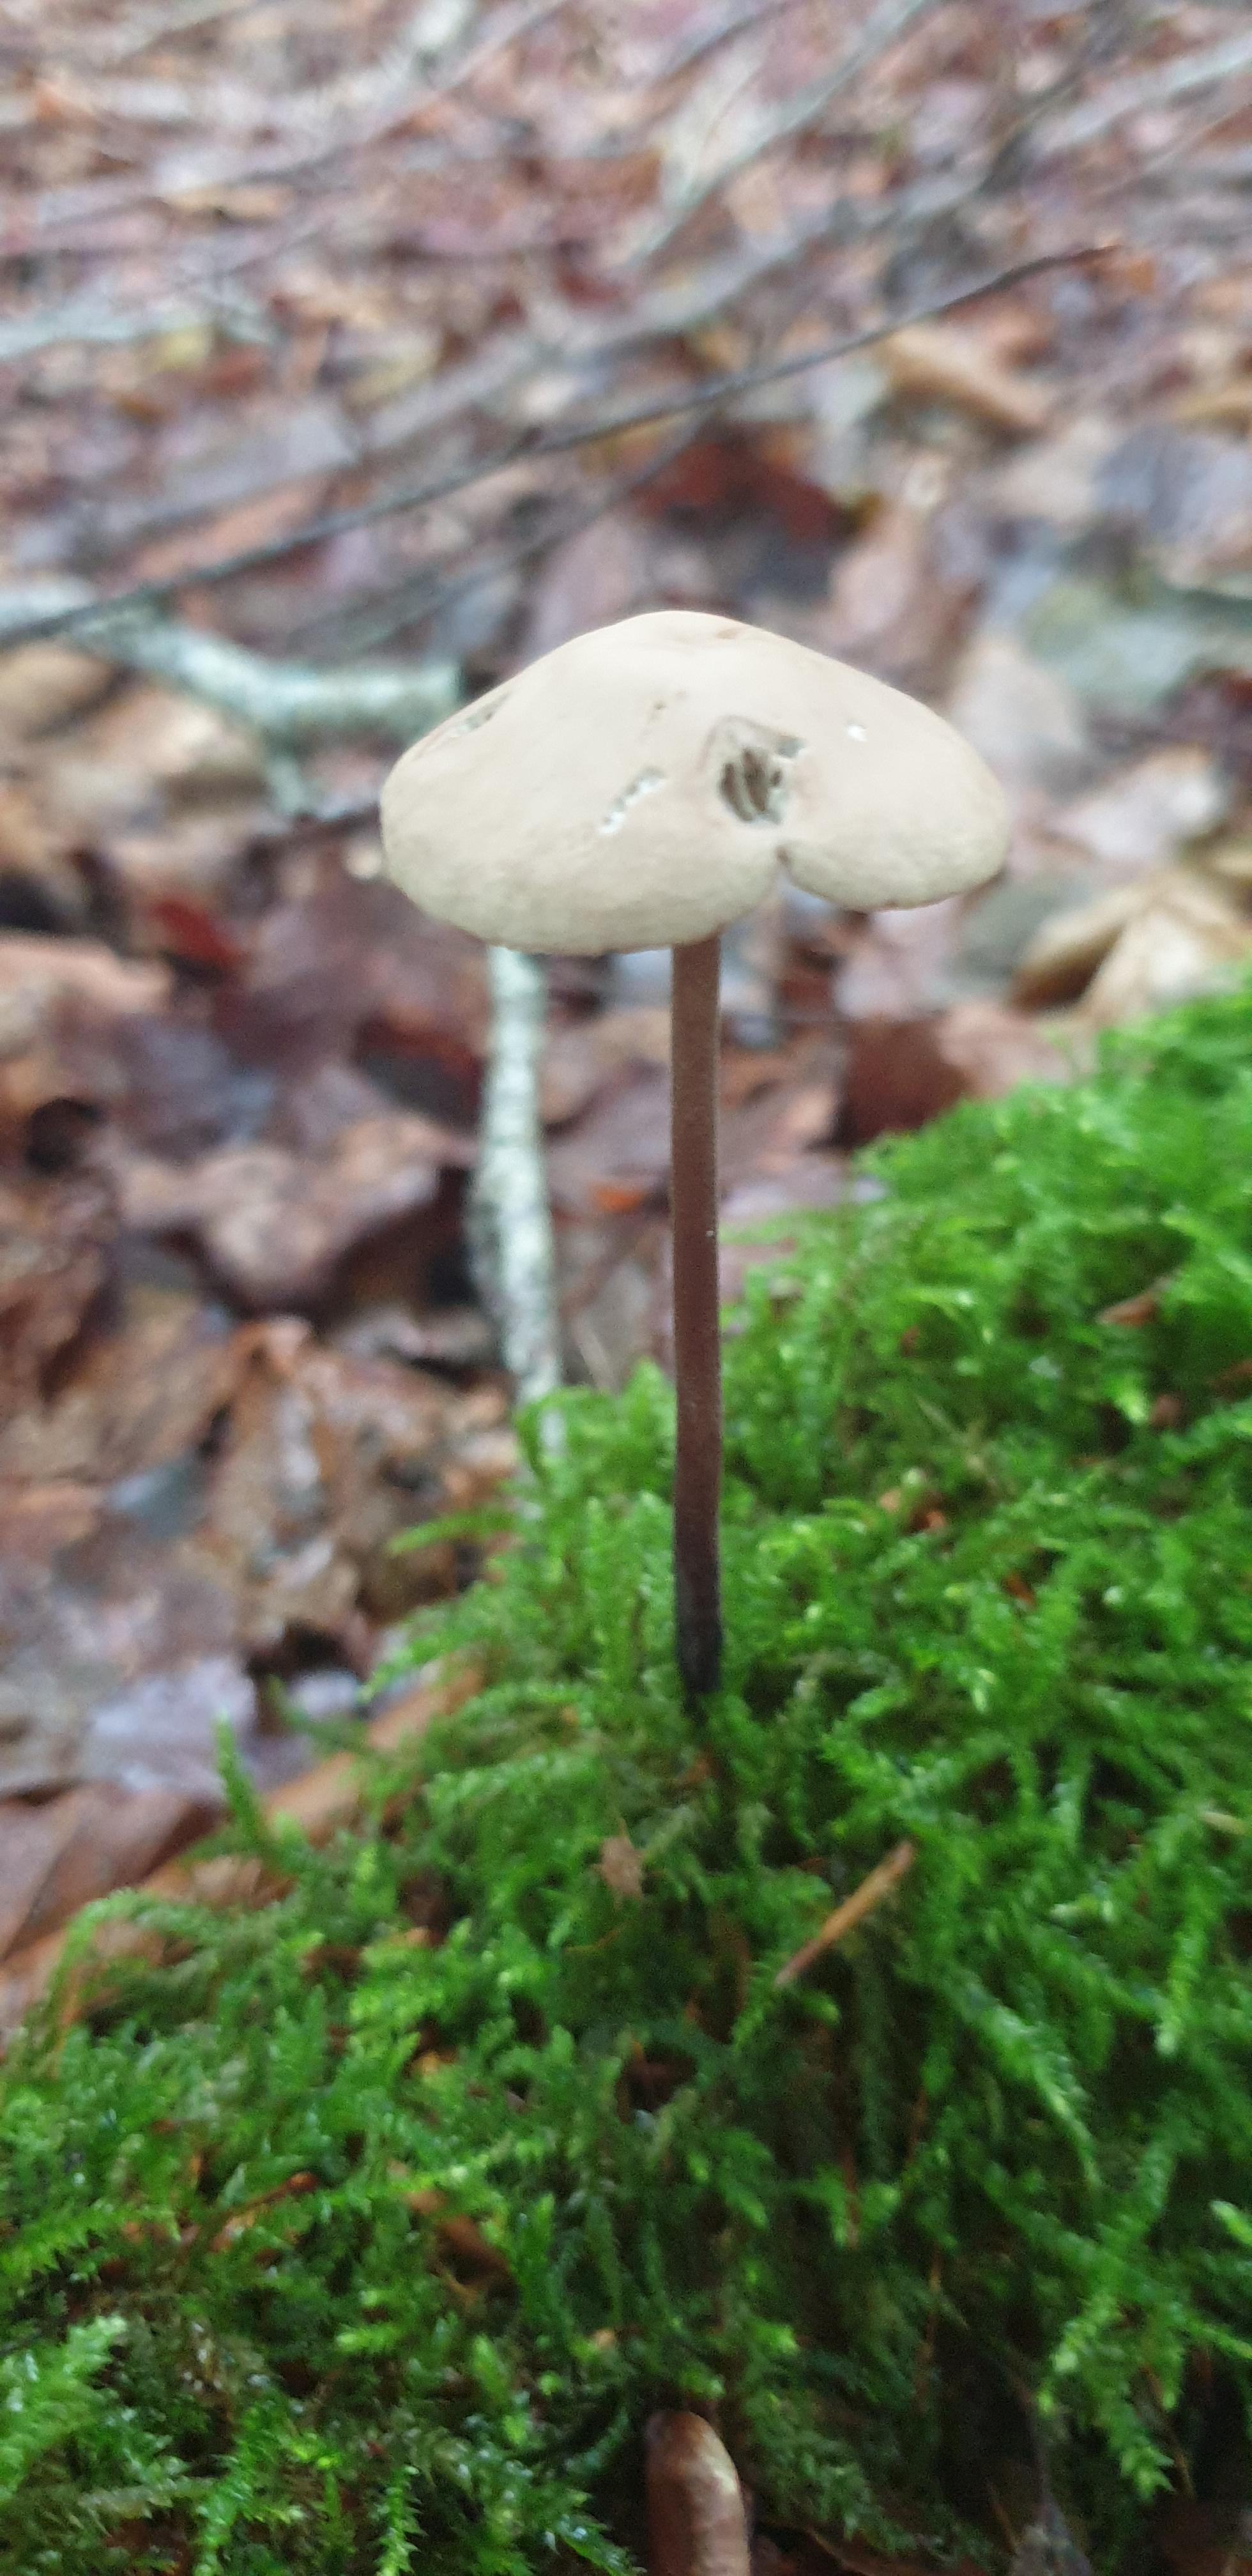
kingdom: Fungi
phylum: Basidiomycota
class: Agaricomycetes
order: Agaricales
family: Omphalotaceae
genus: Mycetinis
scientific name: Mycetinis alliaceus
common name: stor løghat
